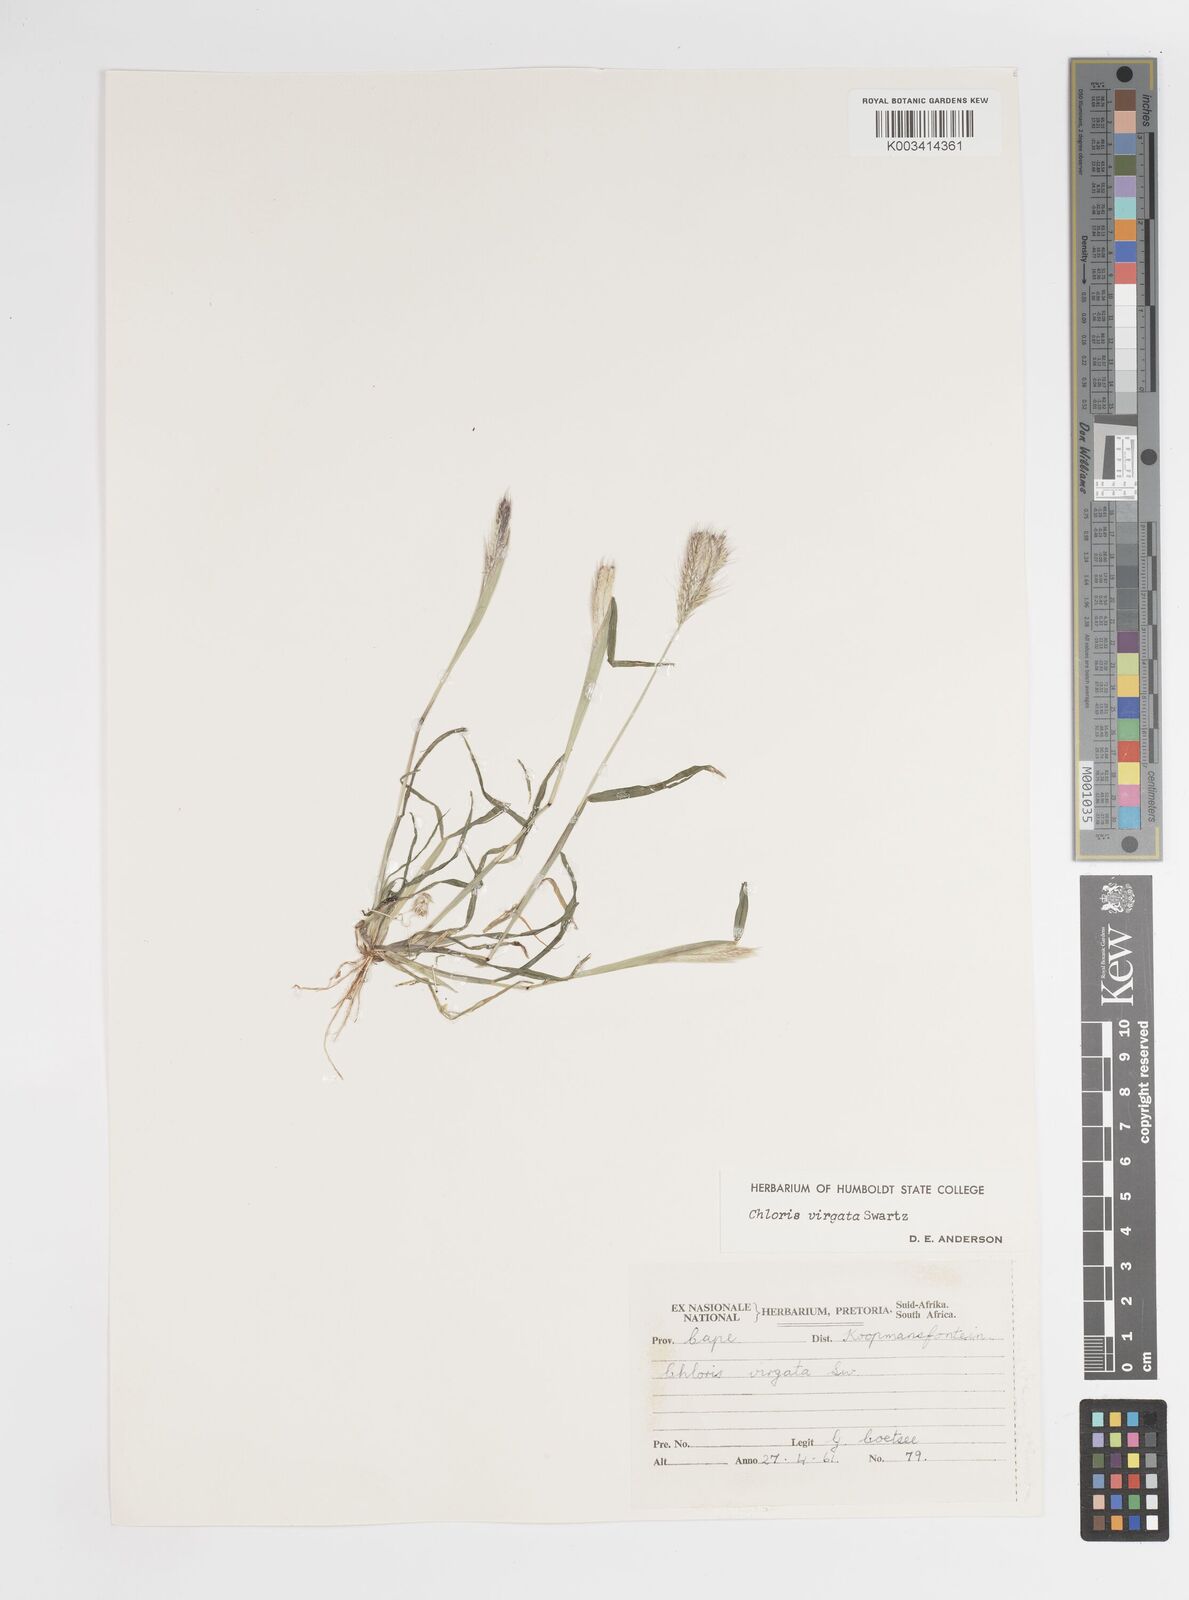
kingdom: Plantae
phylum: Tracheophyta
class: Liliopsida
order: Poales
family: Poaceae
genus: Chloris
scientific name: Chloris virgata
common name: Feathery rhodes-grass
